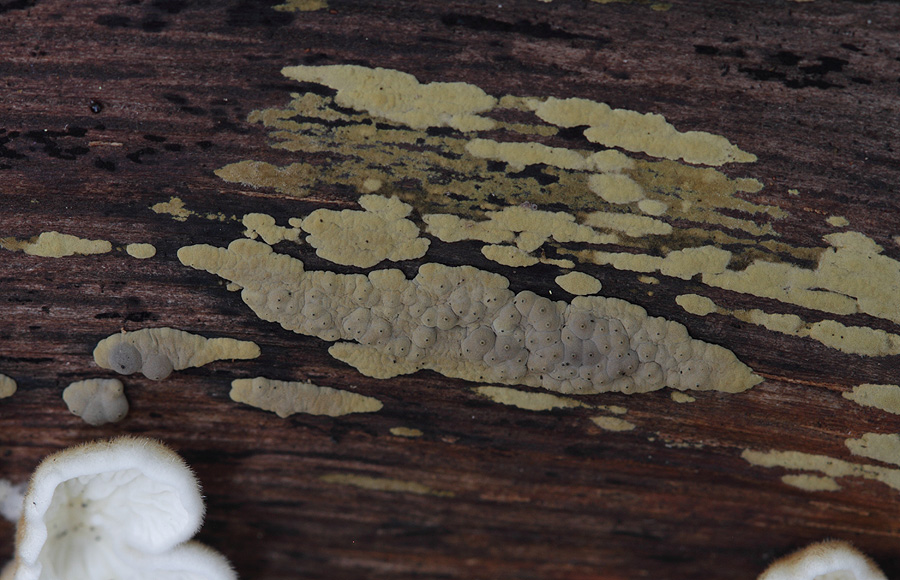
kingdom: Fungi
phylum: Ascomycota
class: Sordariomycetes
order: Xylariales
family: Hypoxylaceae
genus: Jackrogersella
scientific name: Jackrogersella multiformis
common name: foranderlig kulbær
